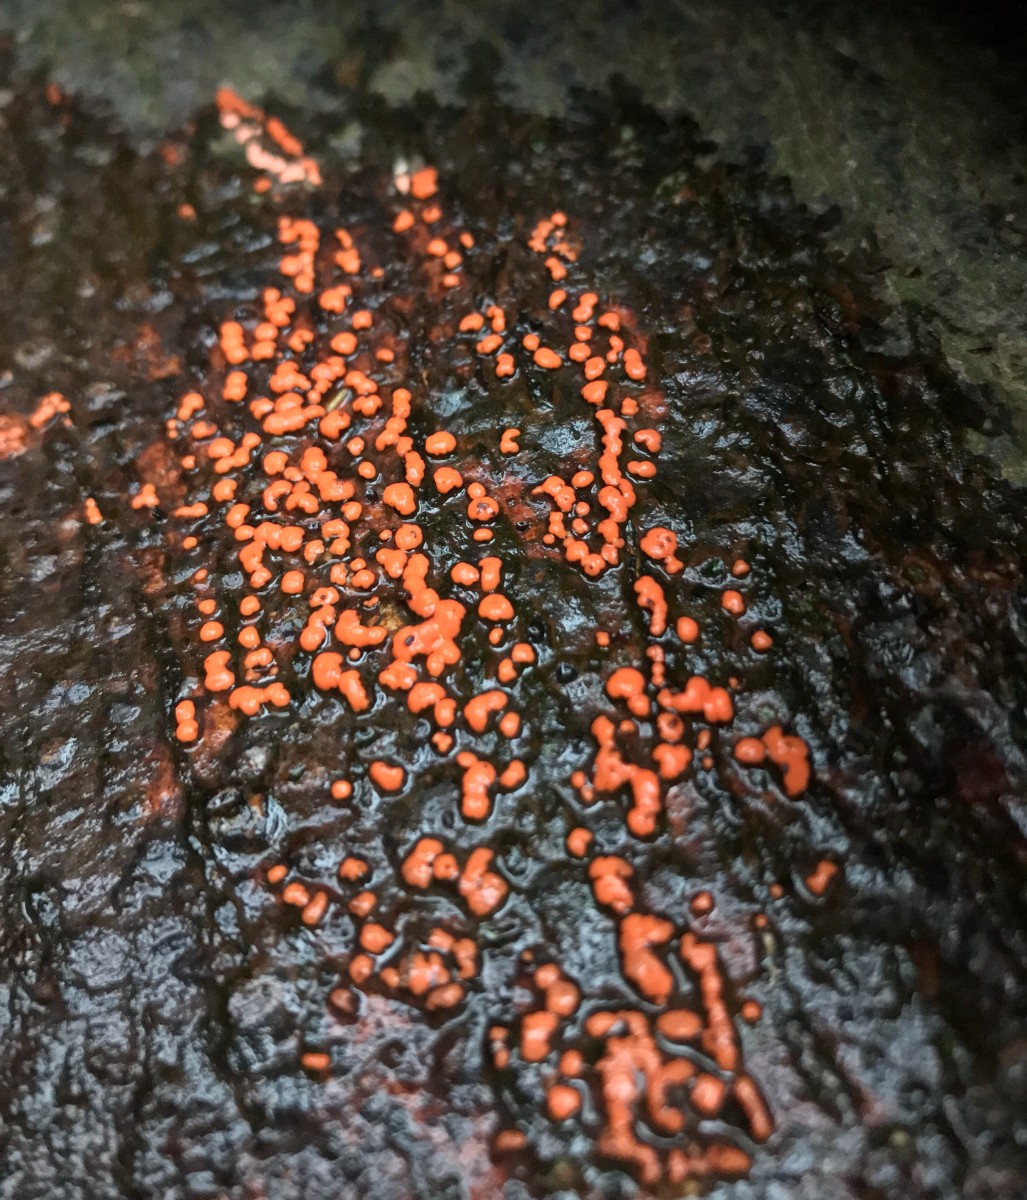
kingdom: Fungi
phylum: Ascomycota
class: Sordariomycetes
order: Hypocreales
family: Nectriaceae
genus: Nectria
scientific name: Nectria cinnabarina
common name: almindelig cinnobersvamp
